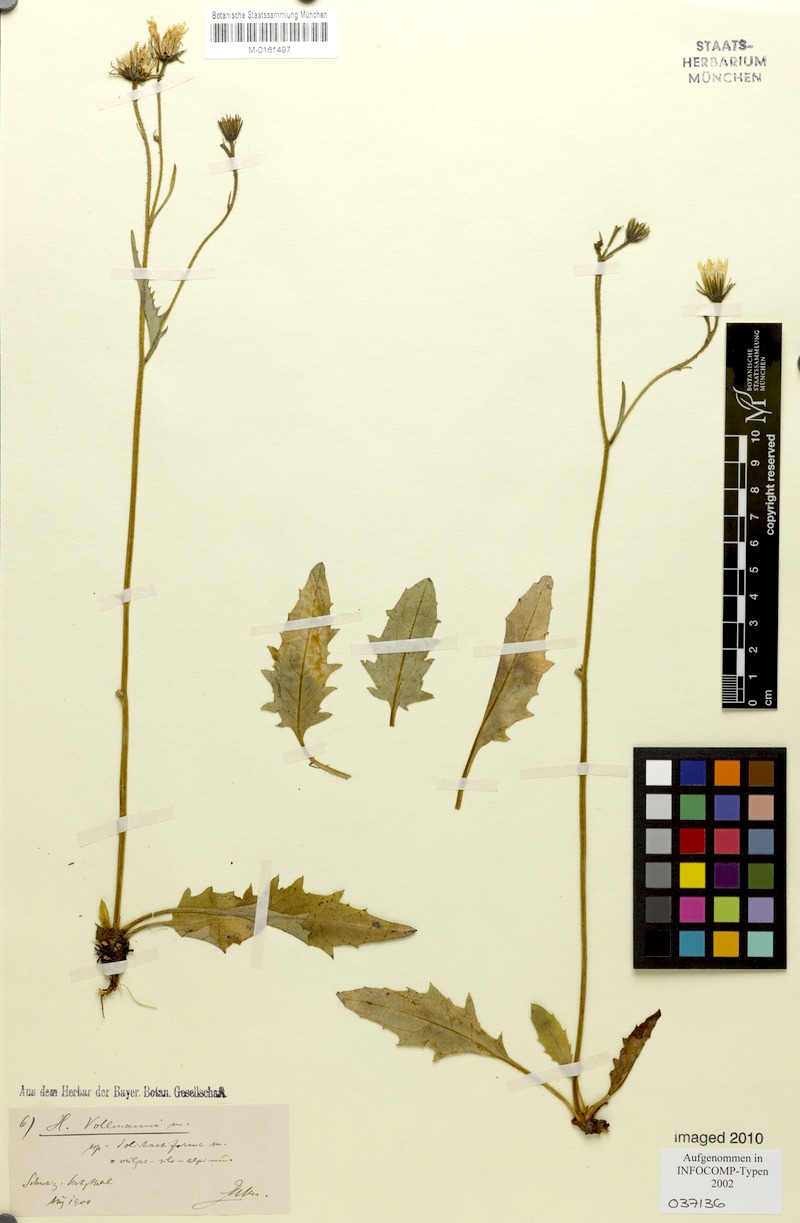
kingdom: Plantae
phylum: Tracheophyta
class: Magnoliopsida
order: Asterales
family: Asteraceae
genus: Hieracium
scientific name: Hieracium vollmannii
